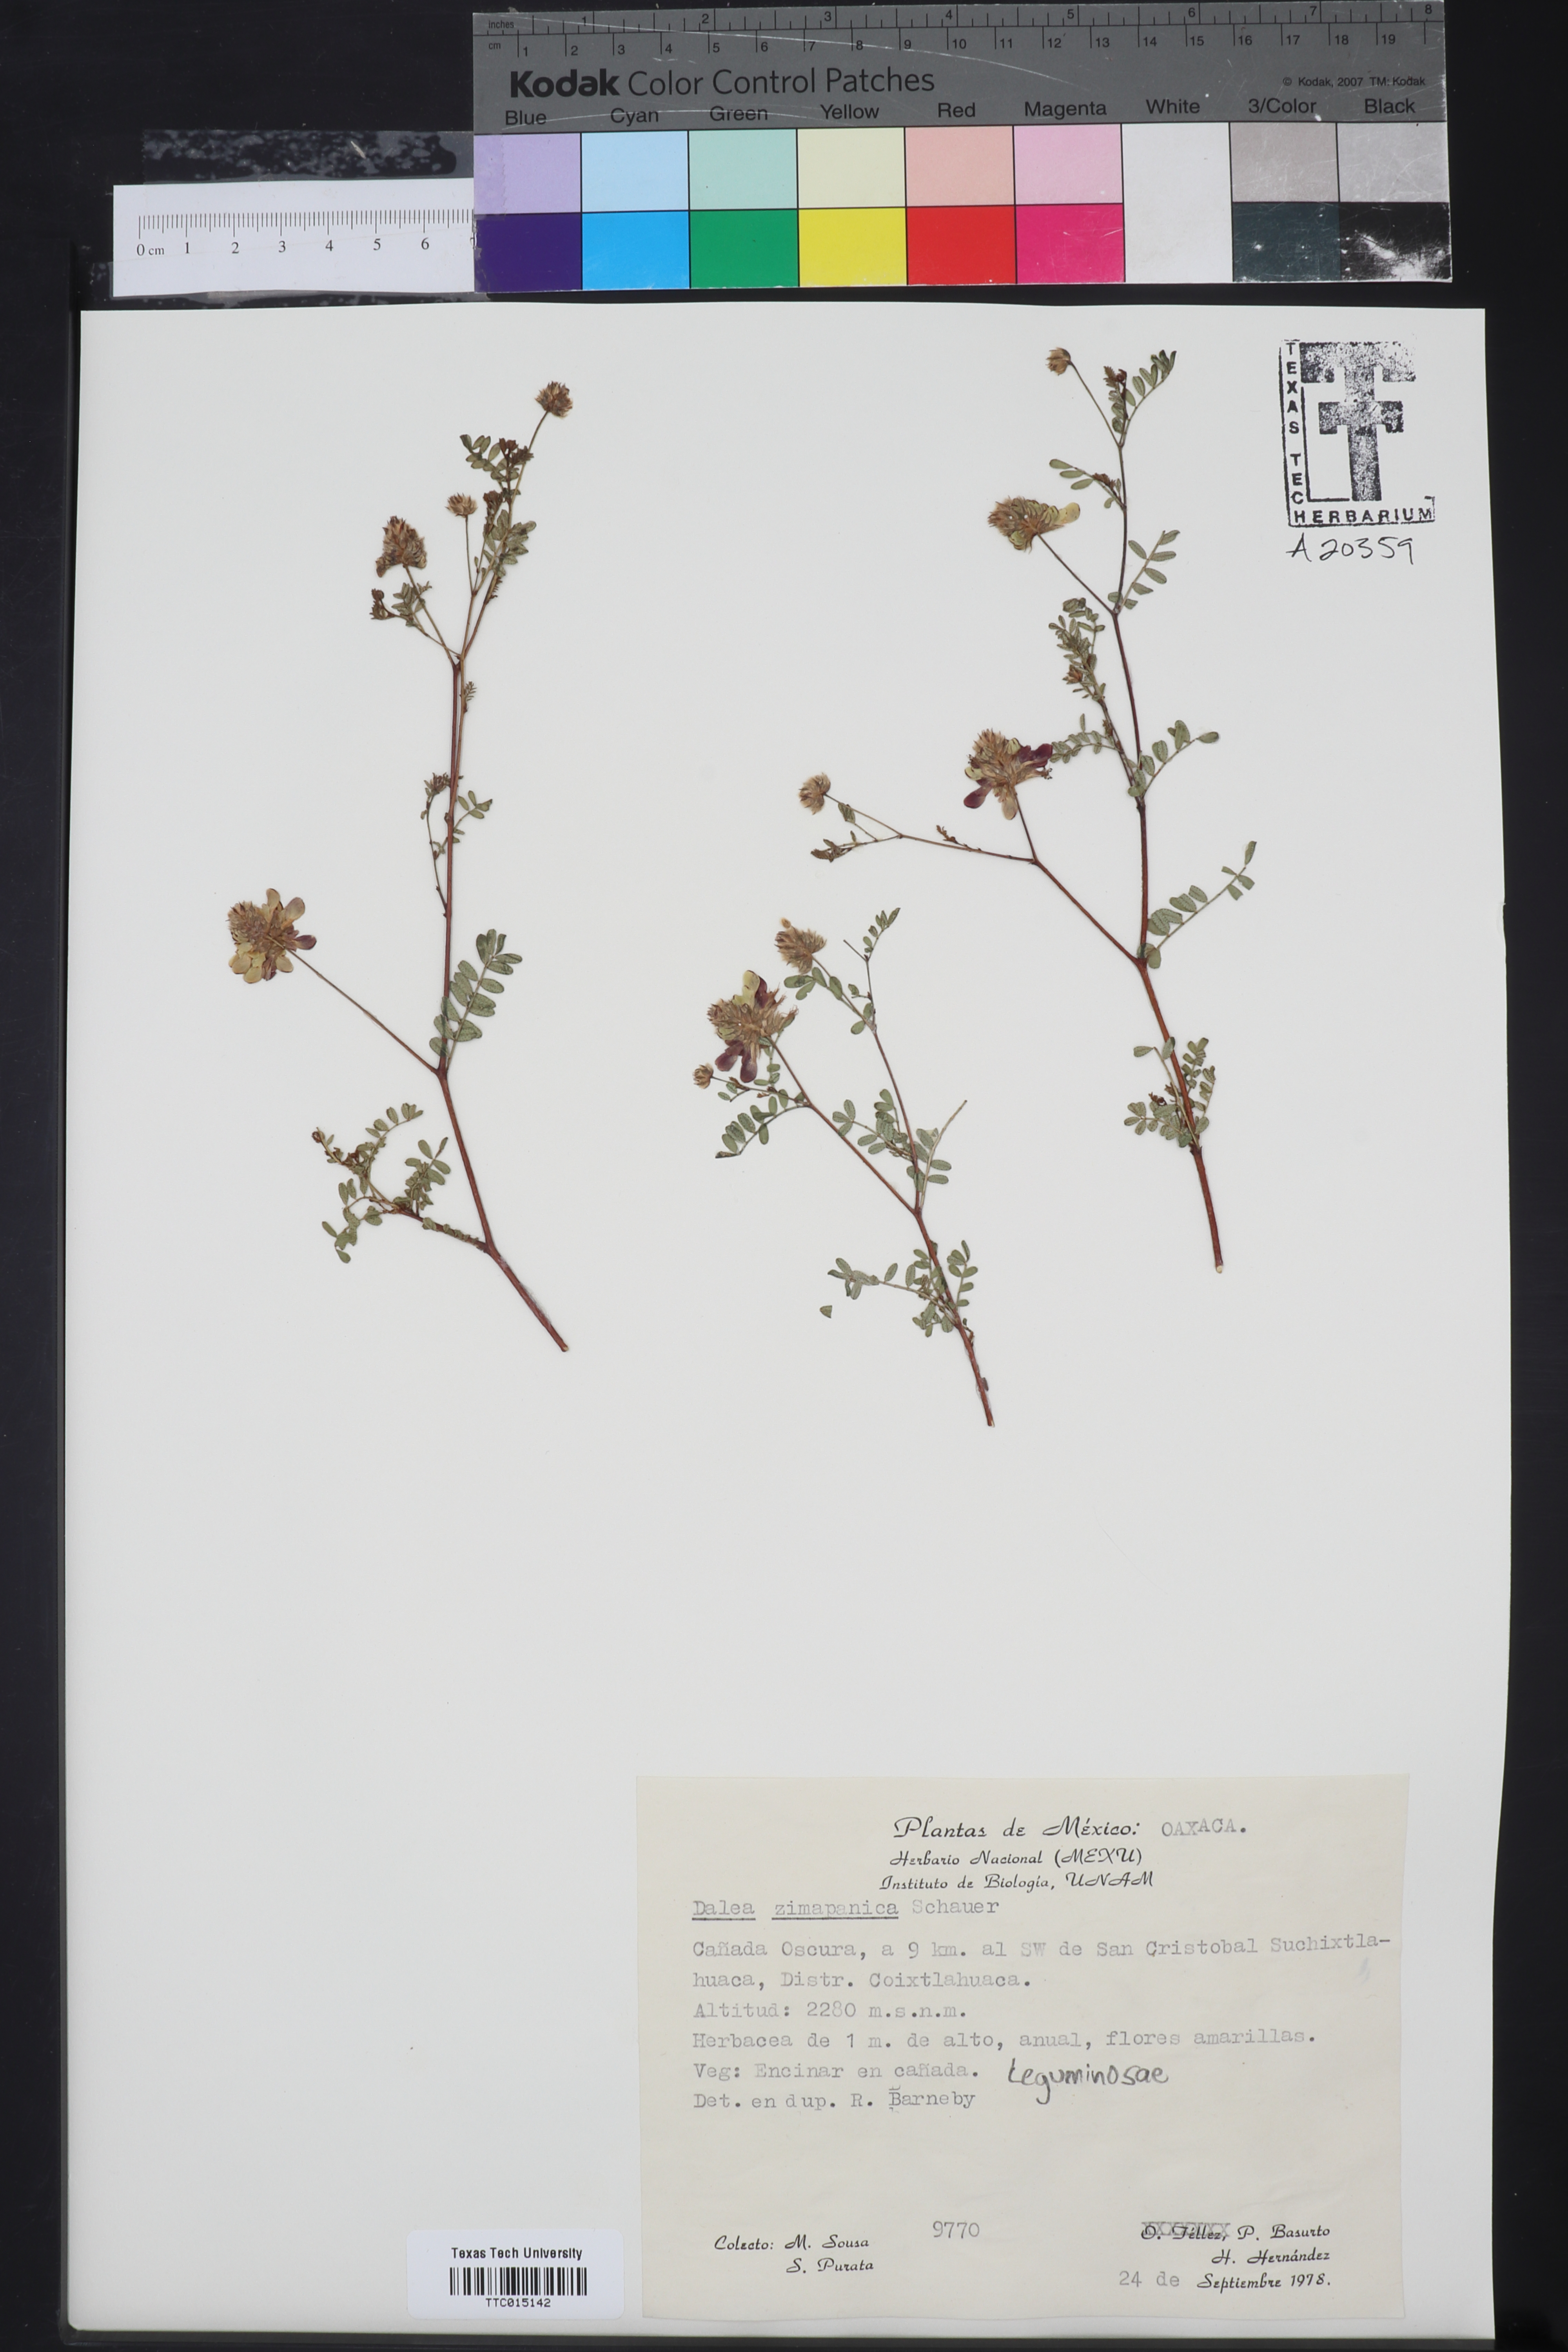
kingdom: Plantae
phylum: Tracheophyta
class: Magnoliopsida
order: Fabales
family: Fabaceae
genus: Dalea
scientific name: Dalea zimapanica
